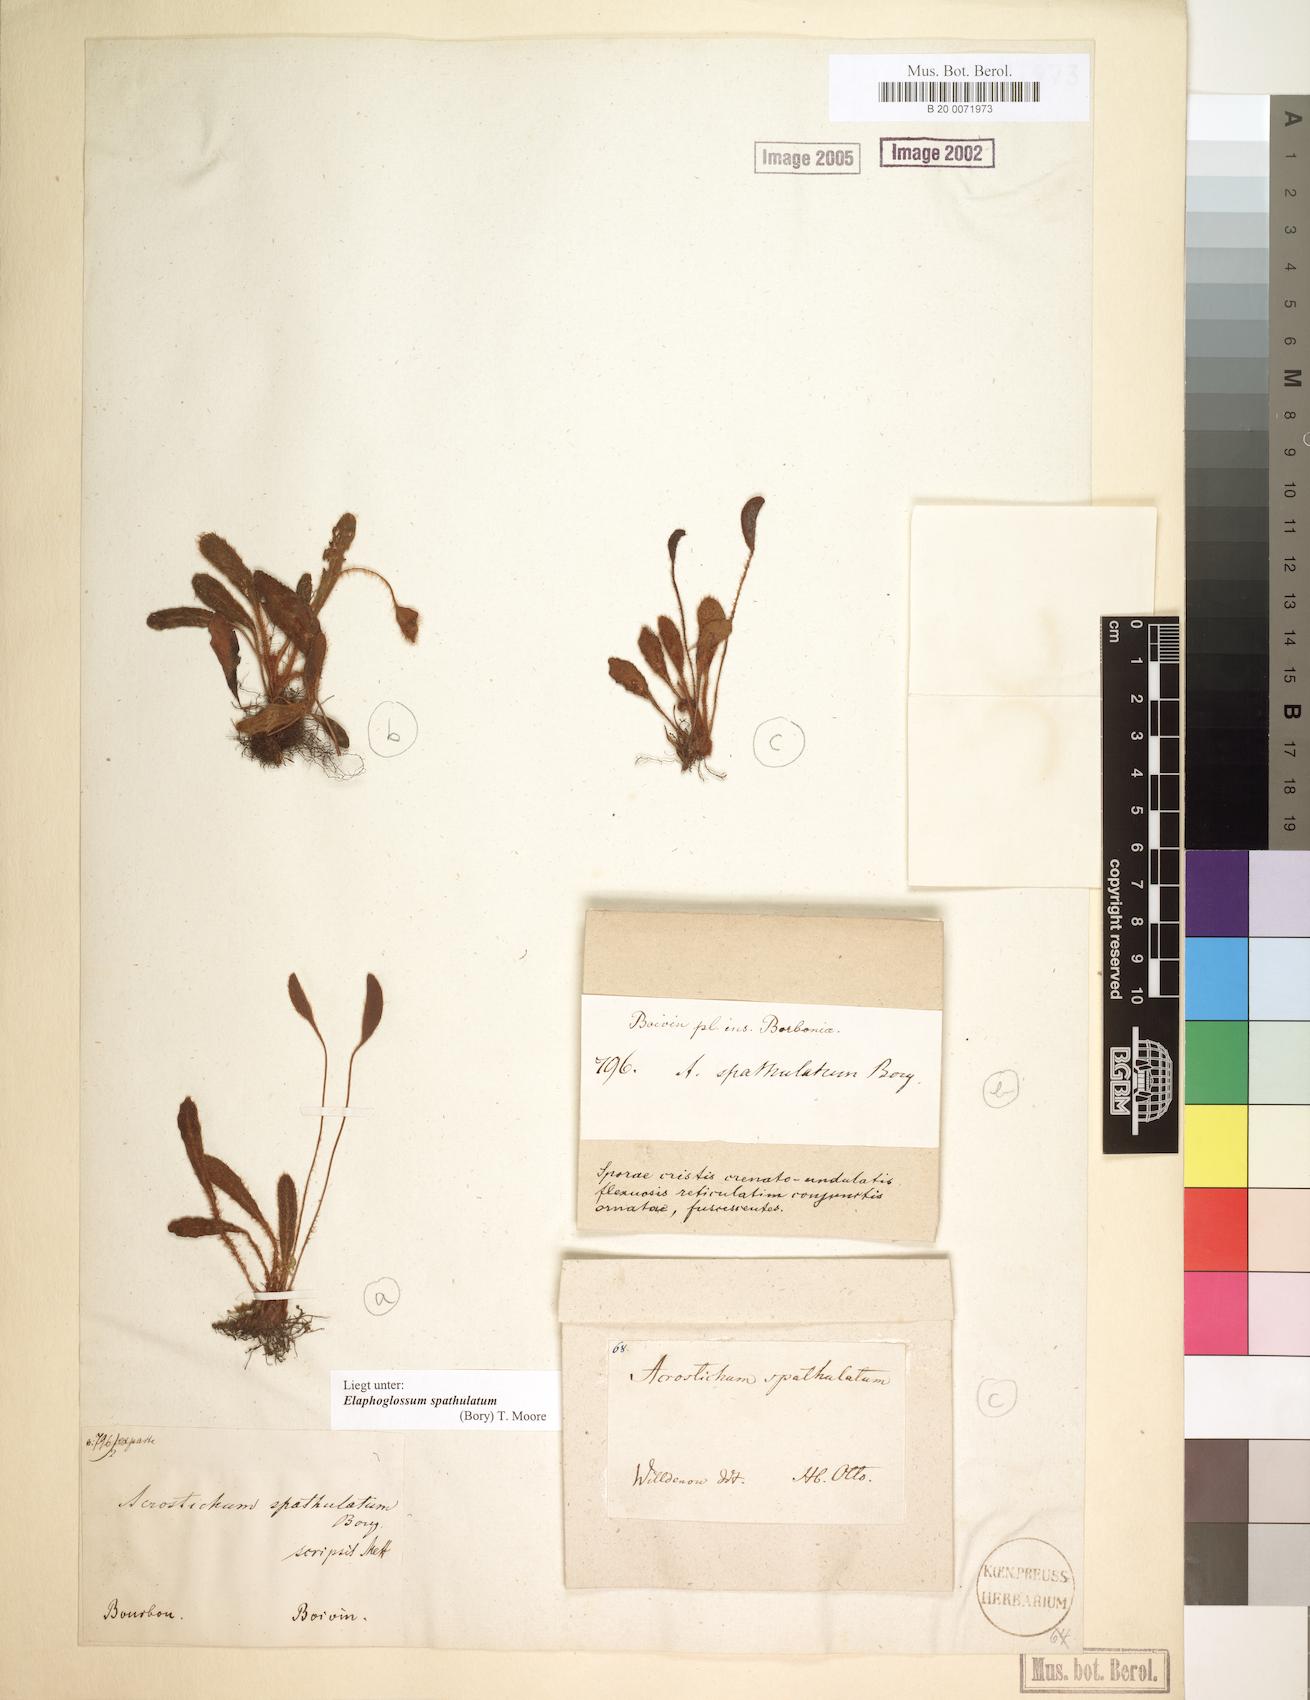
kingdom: Plantae
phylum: Tracheophyta
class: Polypodiopsida
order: Polypodiales
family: Dryopteridaceae
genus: Elaphoglossum
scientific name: Elaphoglossum spatulatum
